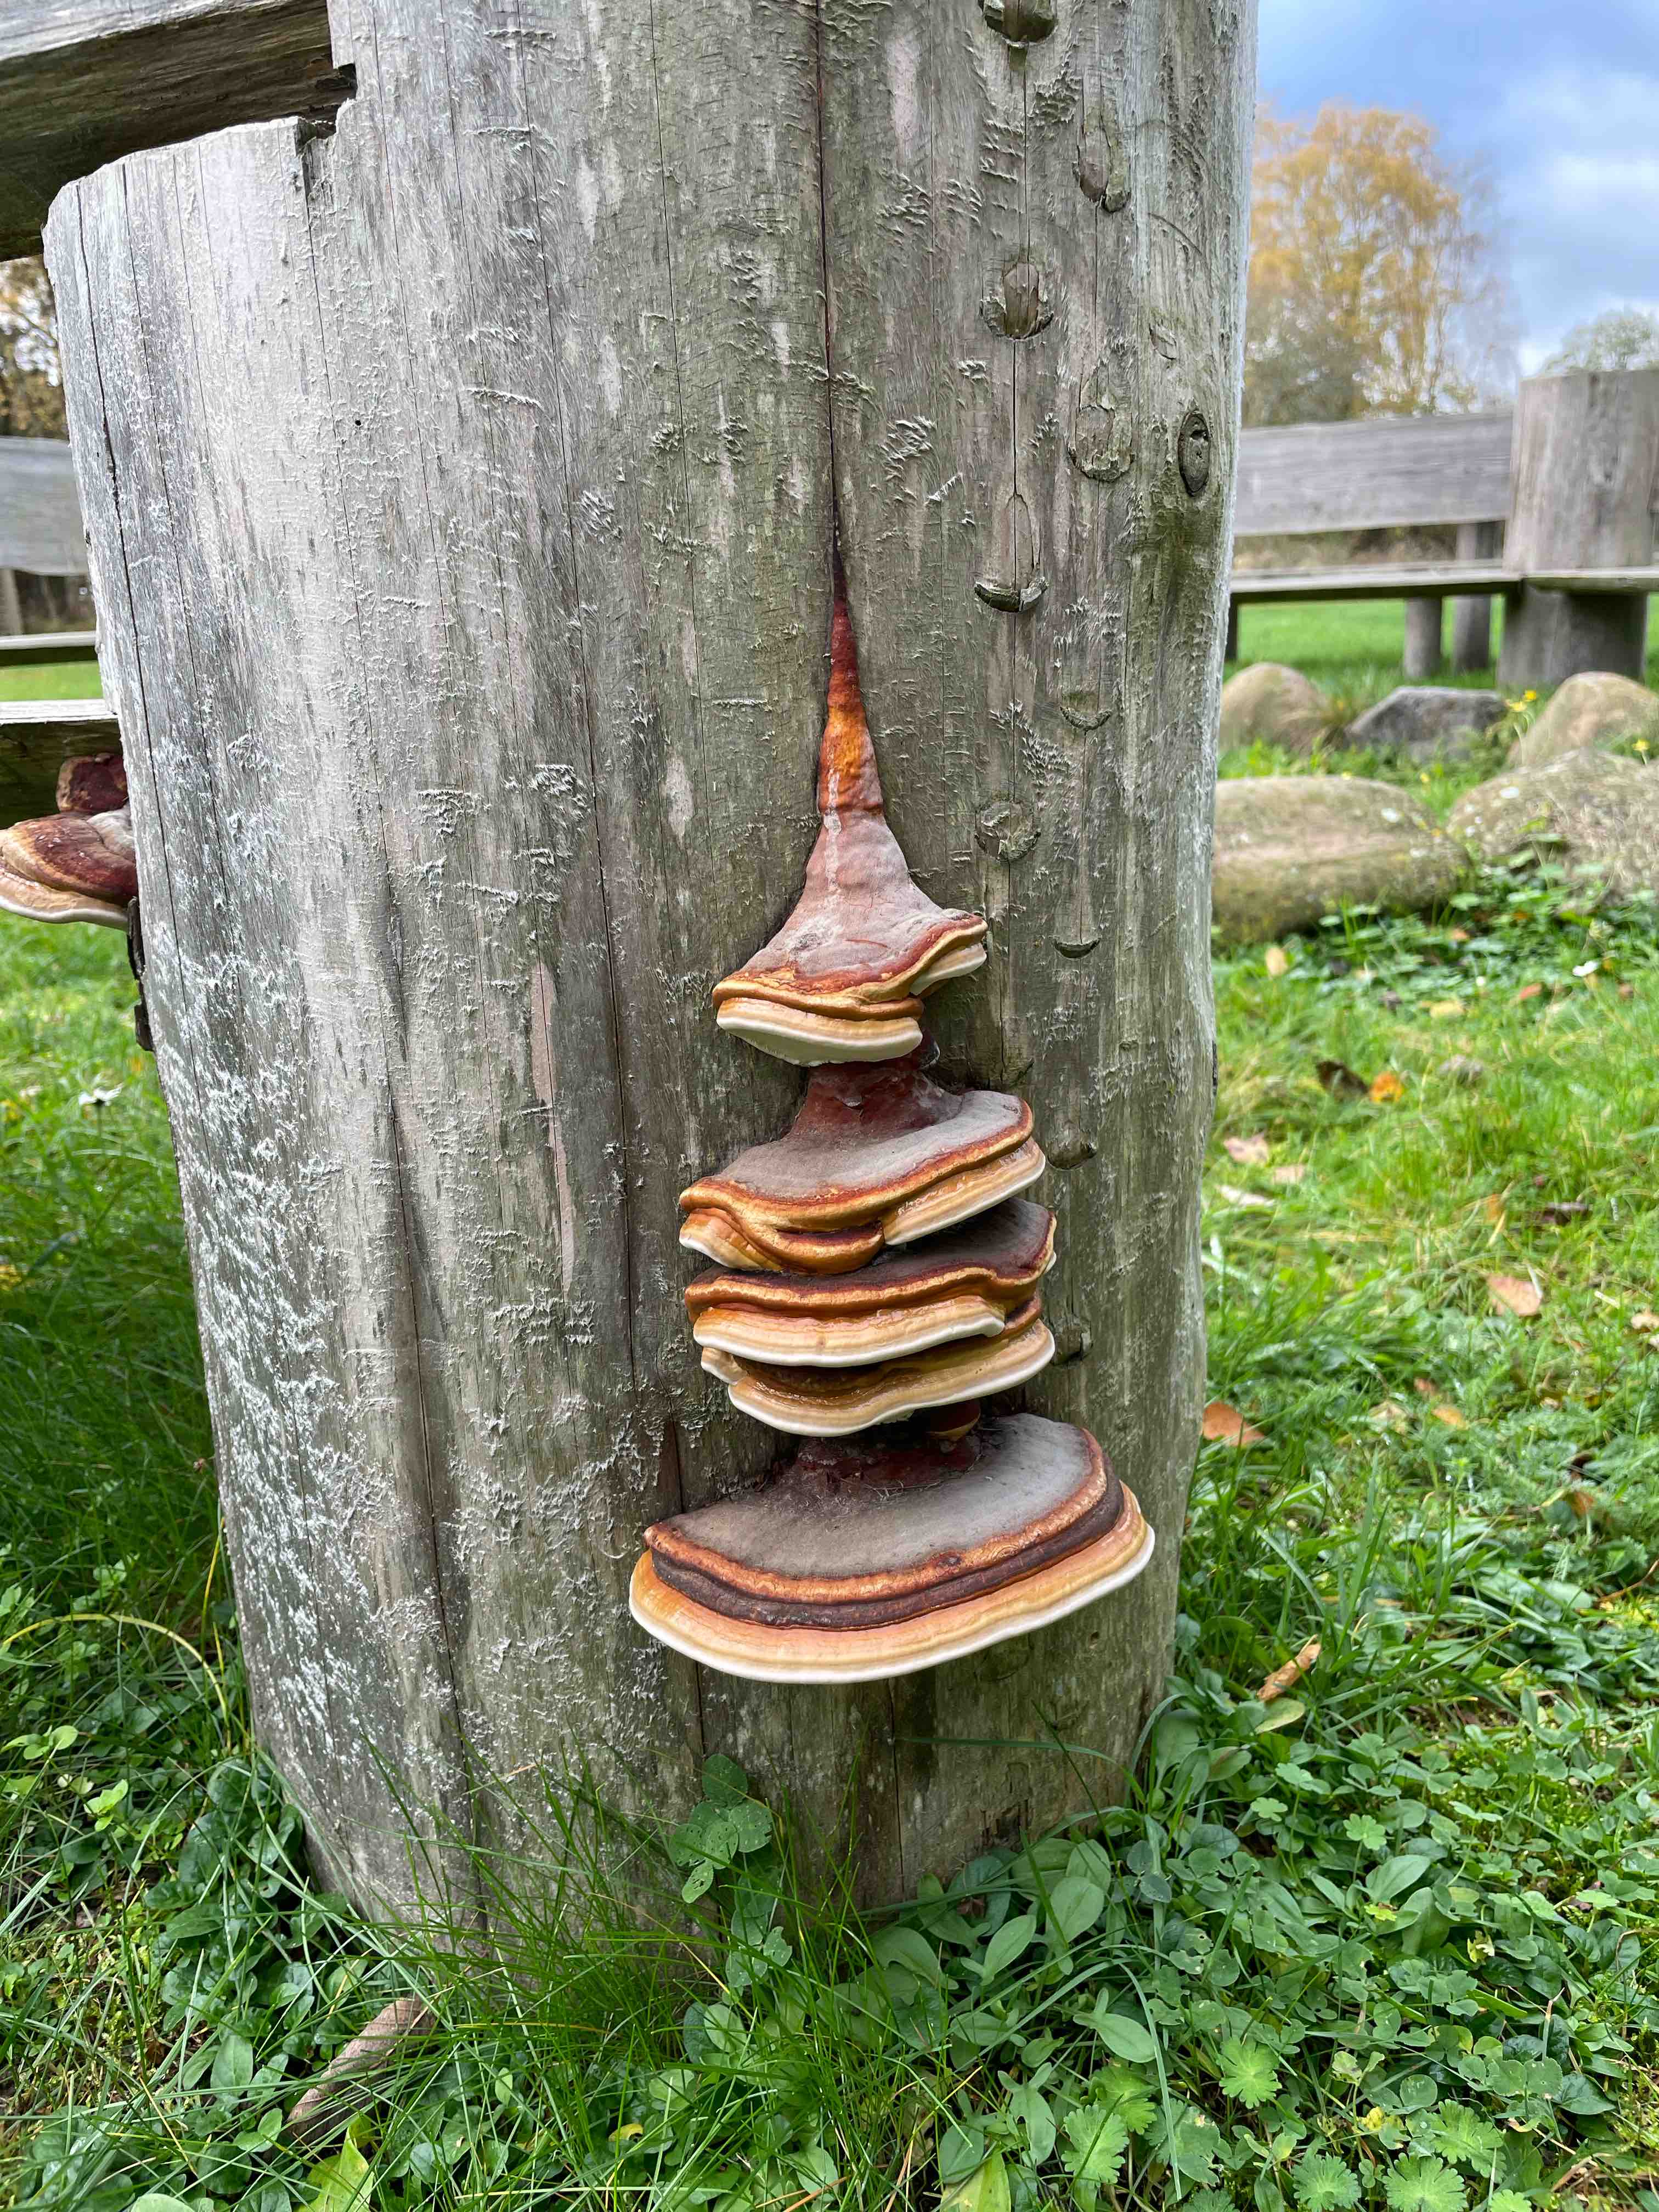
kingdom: Fungi
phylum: Basidiomycota
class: Agaricomycetes
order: Polyporales
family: Fomitopsidaceae
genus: Fomitopsis
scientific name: Fomitopsis pinicola
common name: randbæltet hovporesvamp
